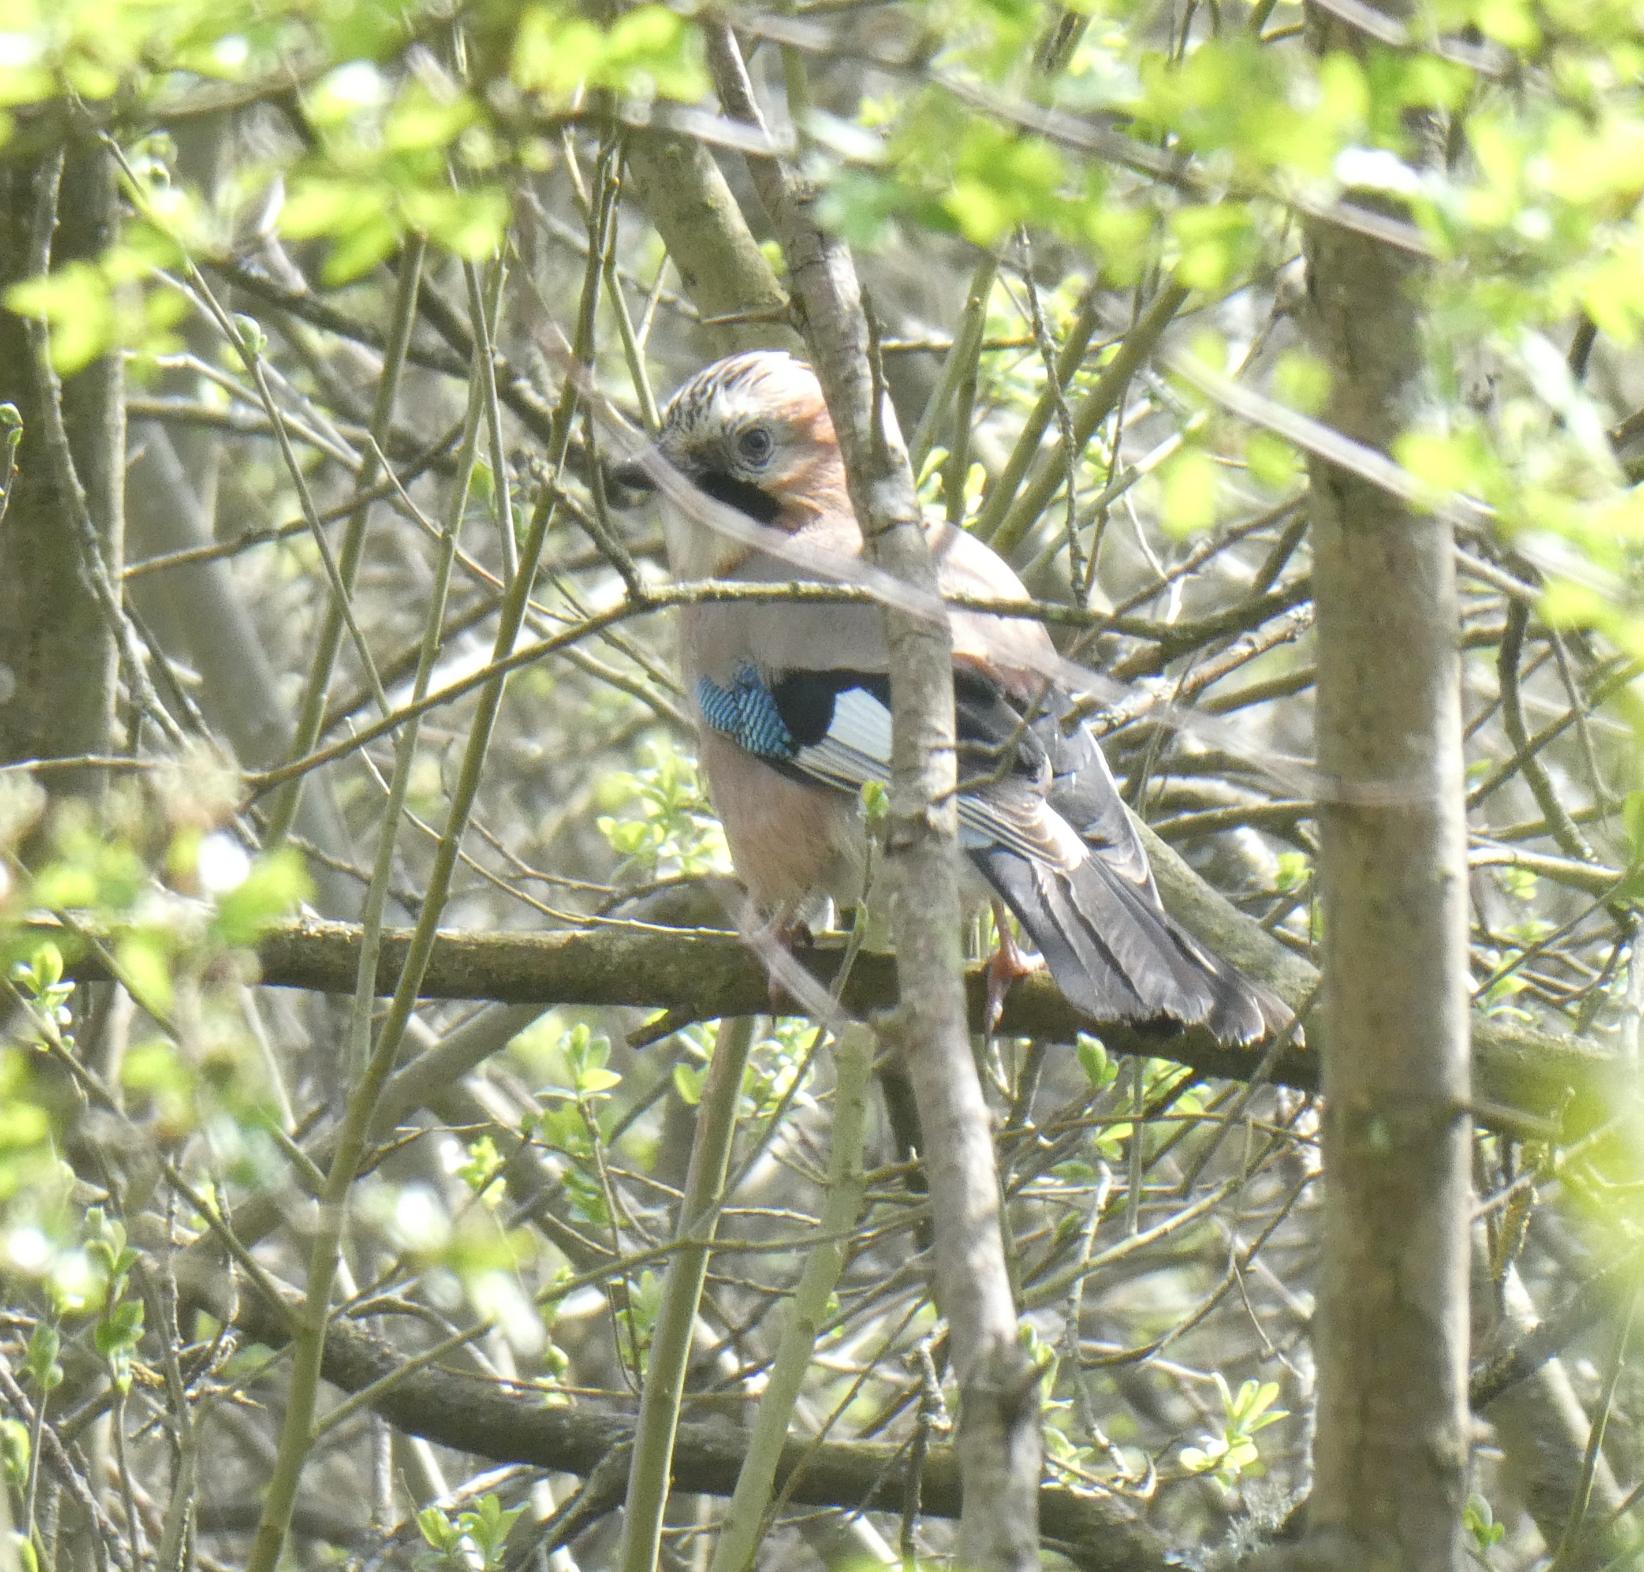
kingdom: Animalia
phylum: Chordata
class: Aves
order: Passeriformes
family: Corvidae
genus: Garrulus
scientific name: Garrulus glandarius
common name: Skovskade
